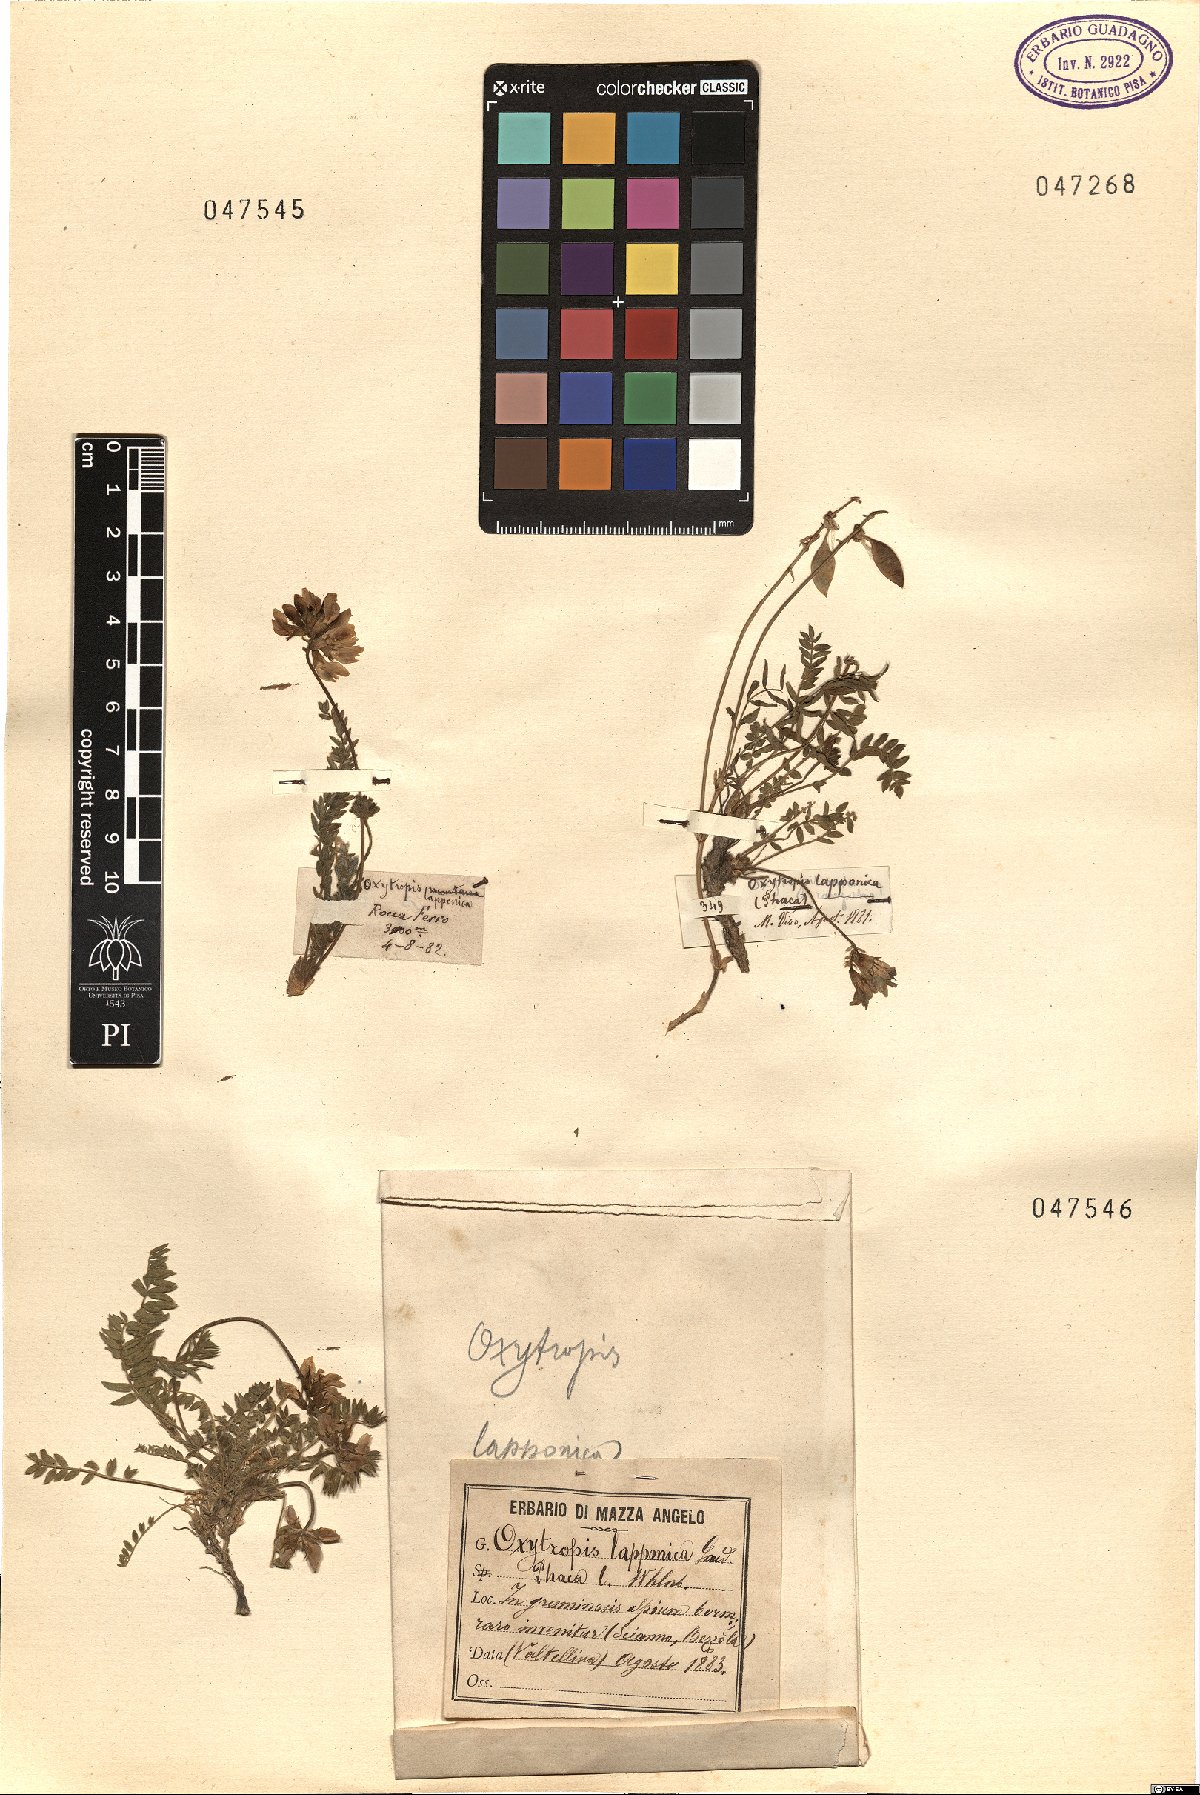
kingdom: Plantae
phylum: Tracheophyta
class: Magnoliopsida
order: Fabales
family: Fabaceae
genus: Oxytropis
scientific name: Oxytropis lapponica
